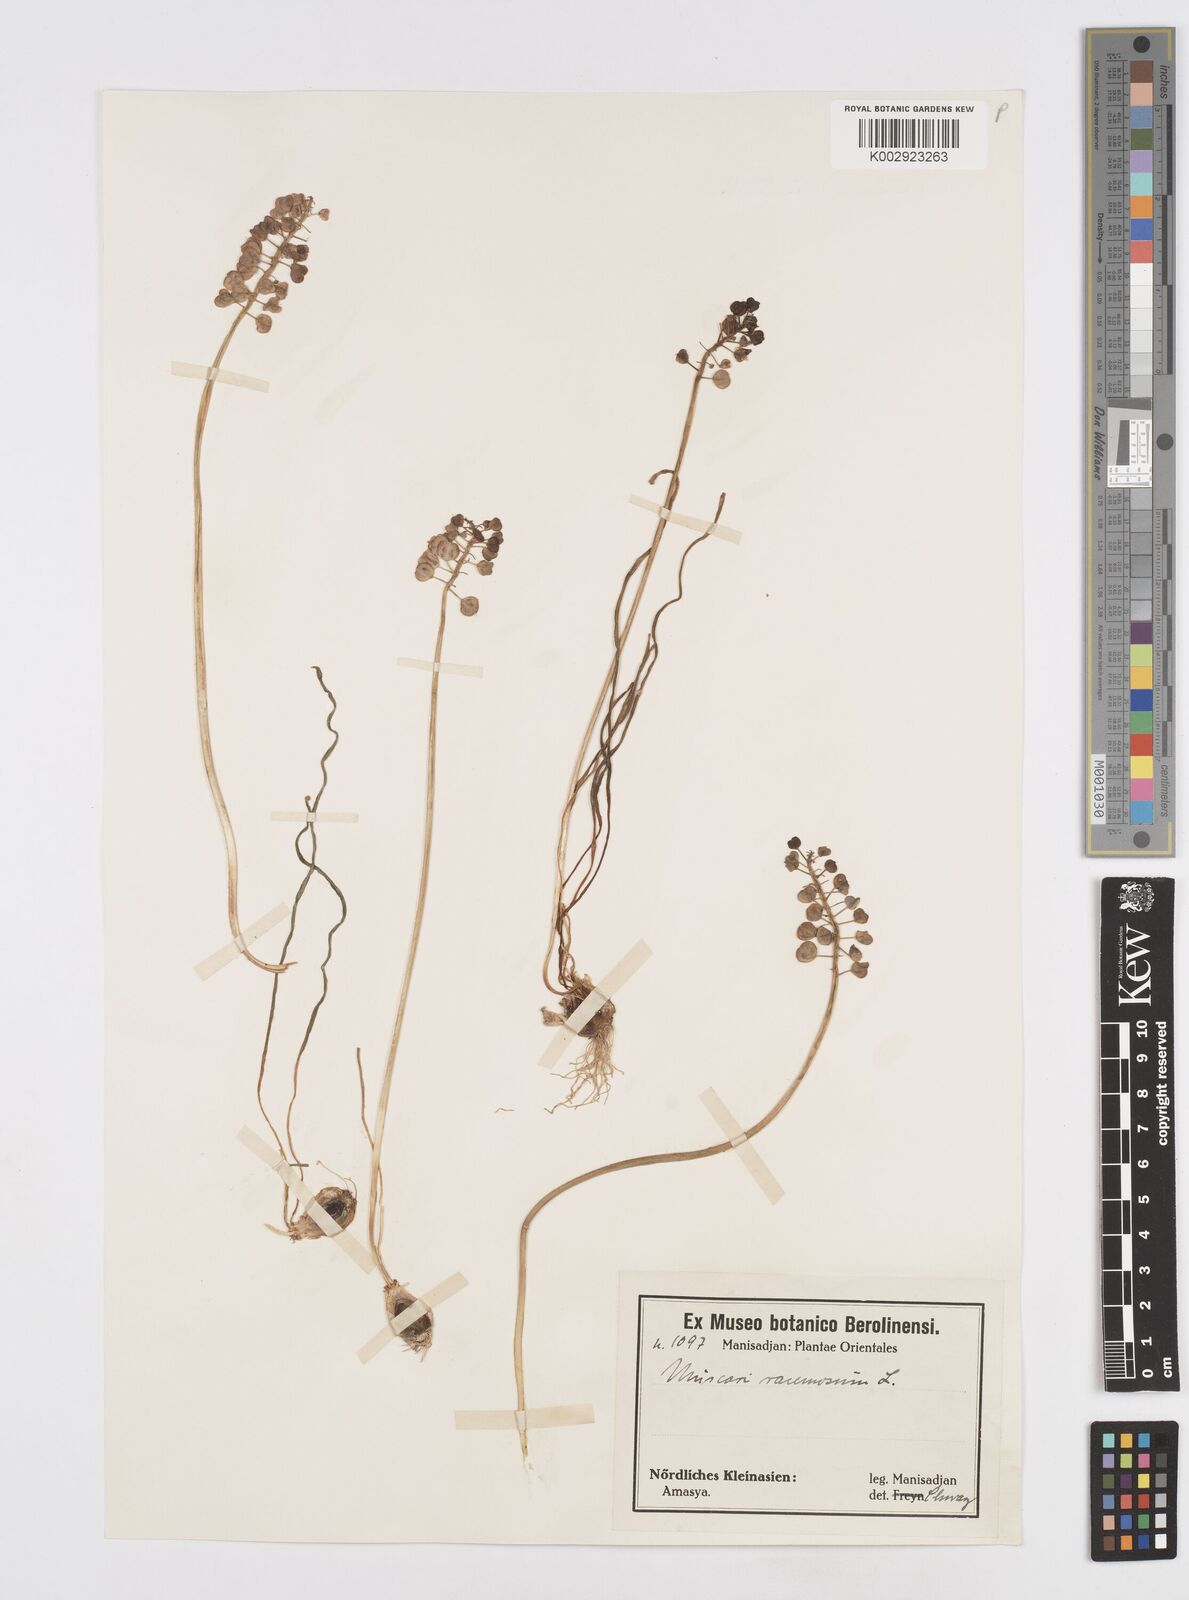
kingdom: Plantae
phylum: Tracheophyta
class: Liliopsida
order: Asparagales
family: Asparagaceae
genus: Muscari
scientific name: Muscari neglectum
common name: Grape-hyacinth
